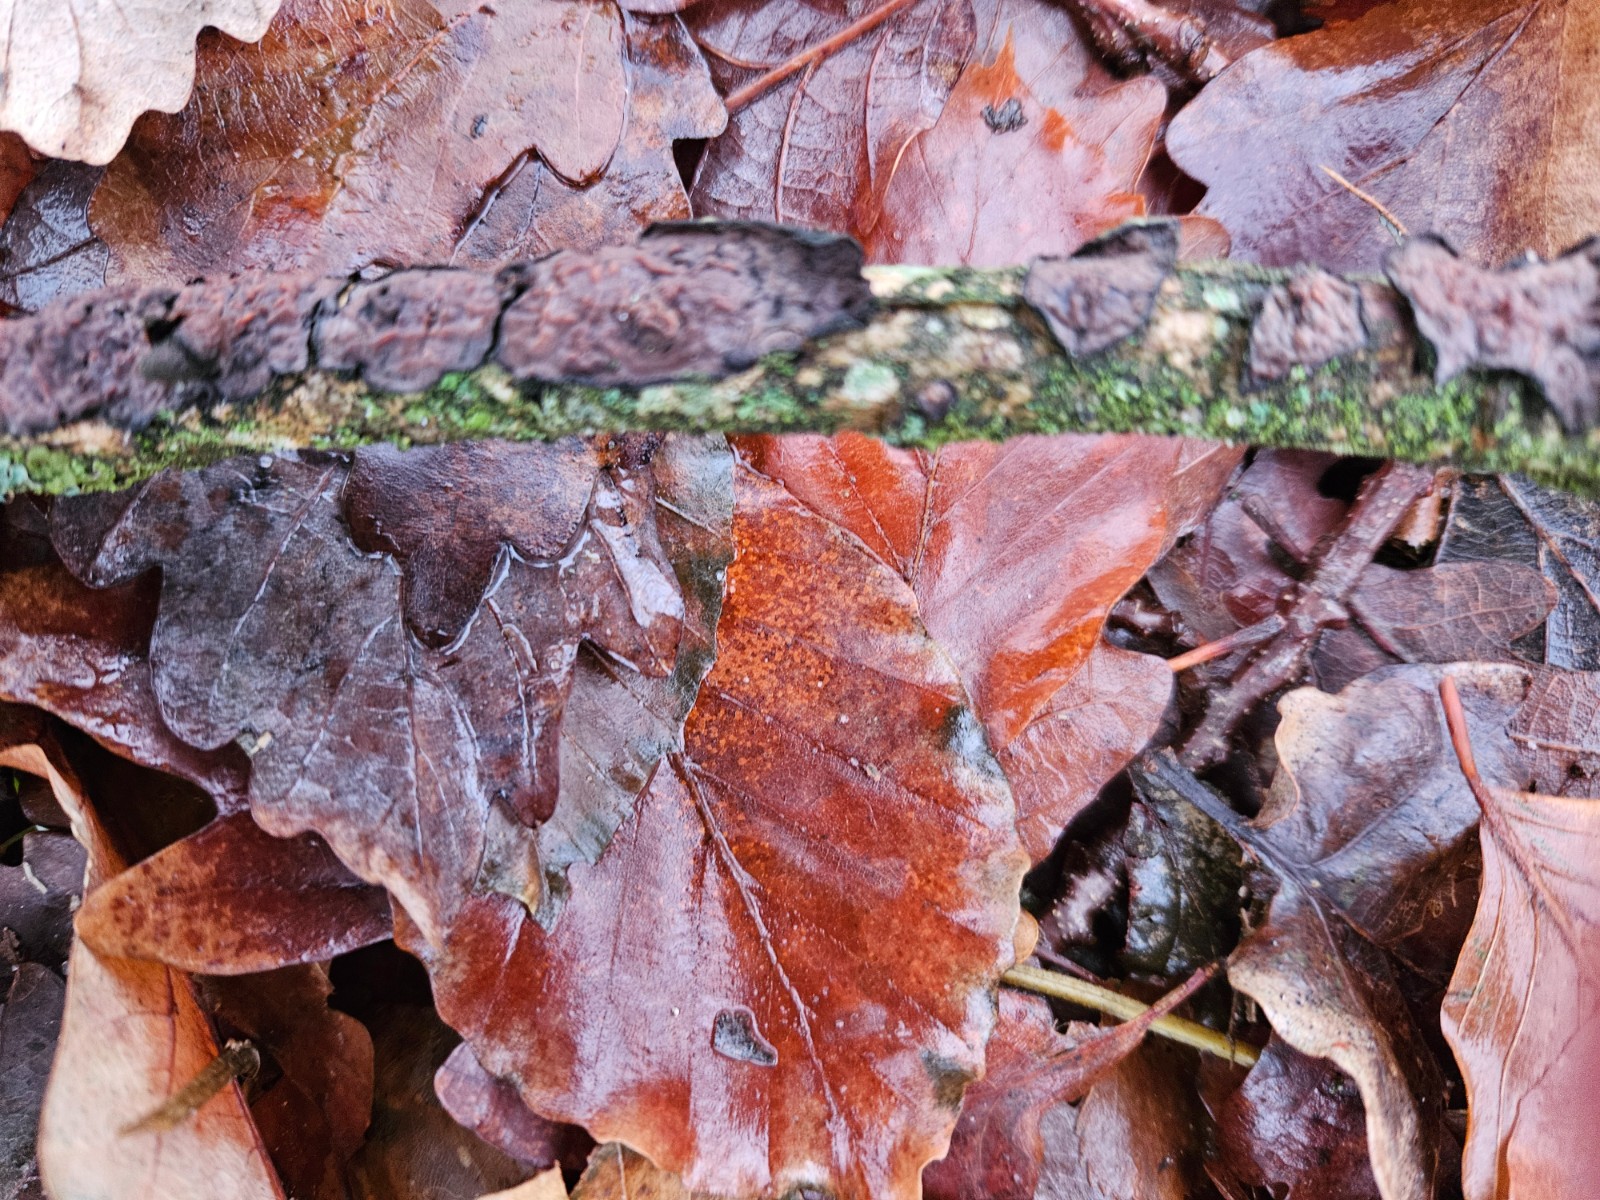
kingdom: Fungi
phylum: Basidiomycota
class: Agaricomycetes
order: Russulales
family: Peniophoraceae
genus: Peniophora
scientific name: Peniophora quercina
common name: ege-voksskind
